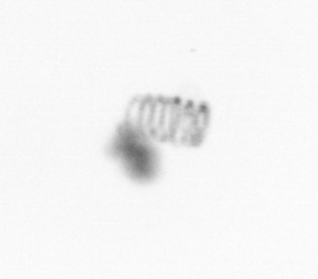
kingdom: Chromista
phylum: Ochrophyta
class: Bacillariophyceae
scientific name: Bacillariophyceae
